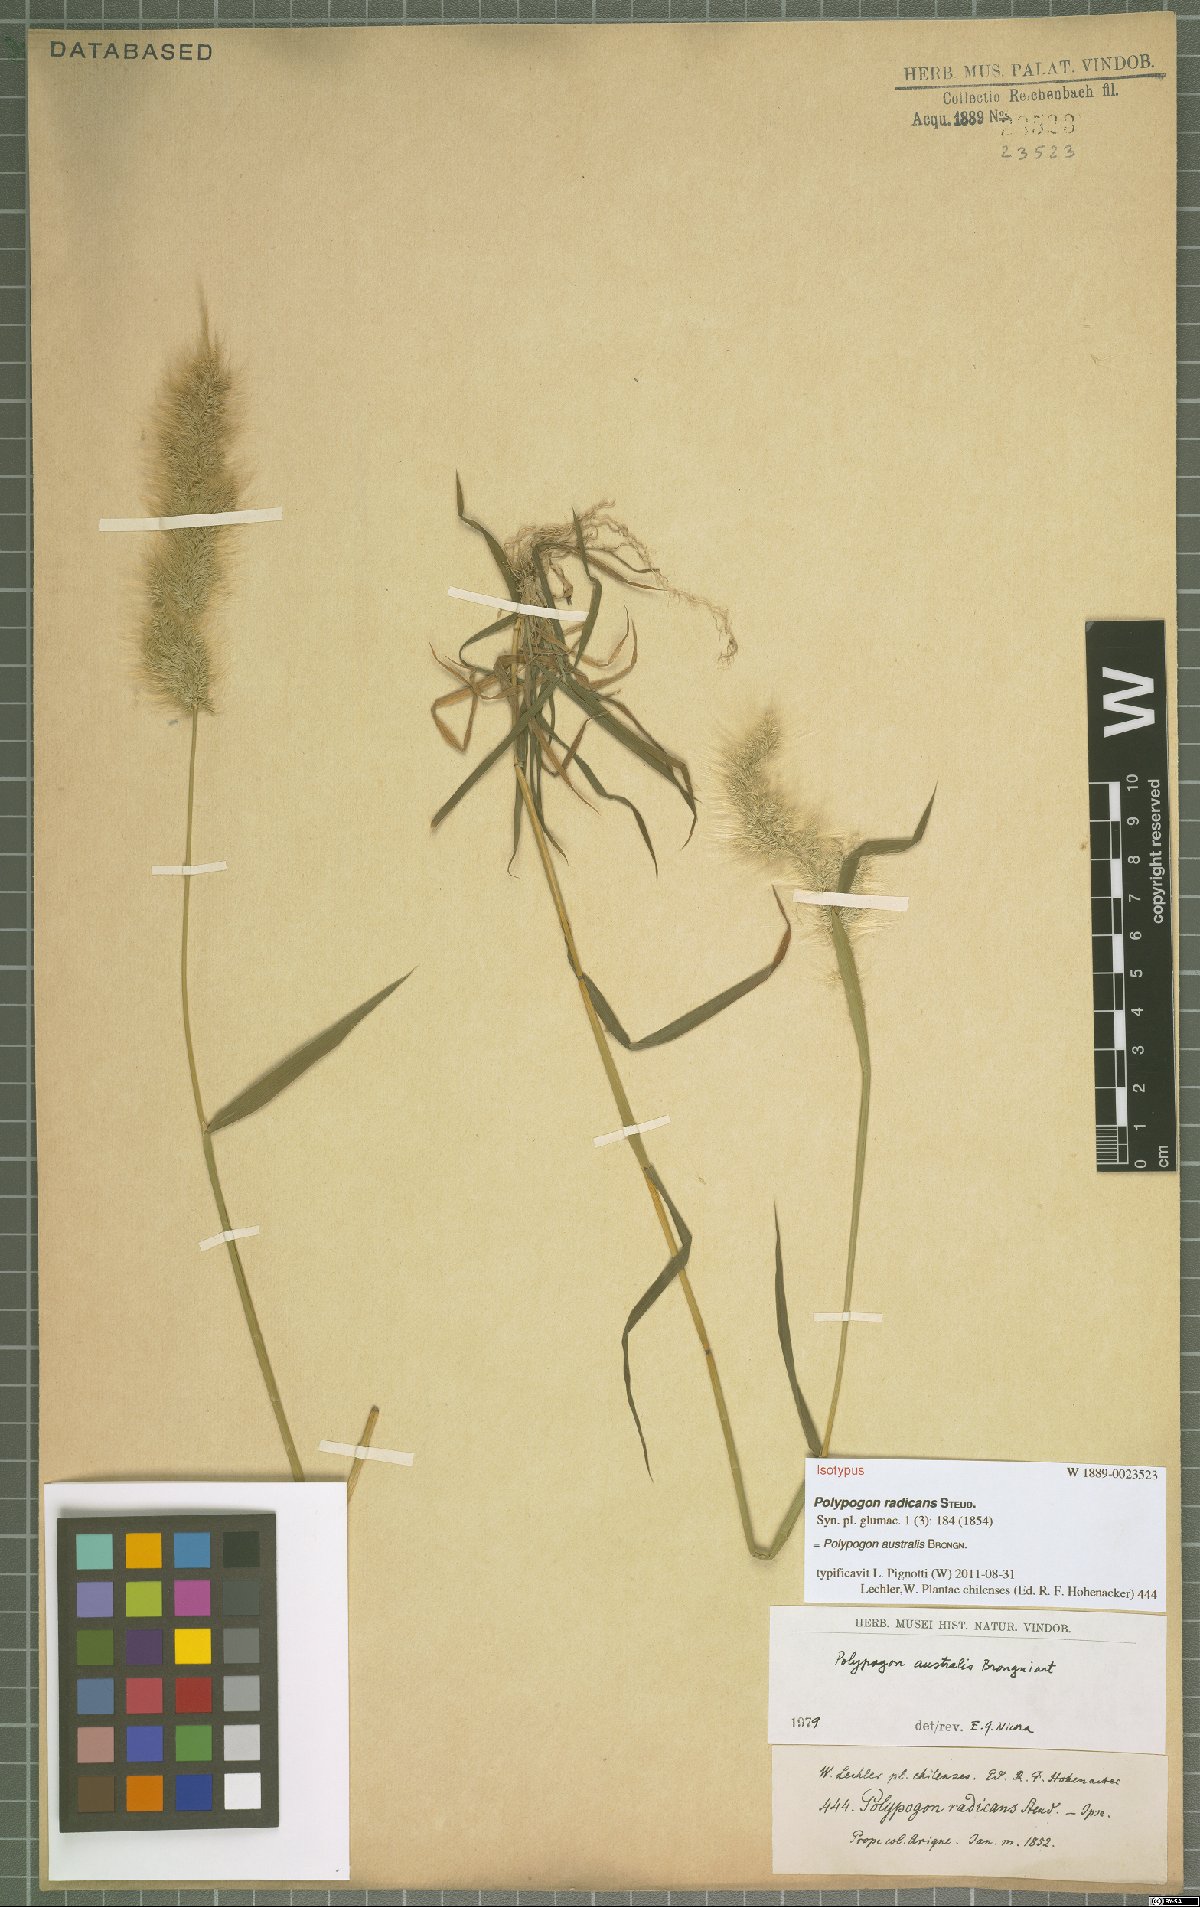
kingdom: Plantae
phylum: Tracheophyta
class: Liliopsida
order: Poales
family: Poaceae
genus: Polypogon
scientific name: Polypogon australis
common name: Chilean rabbitsfoot grass
